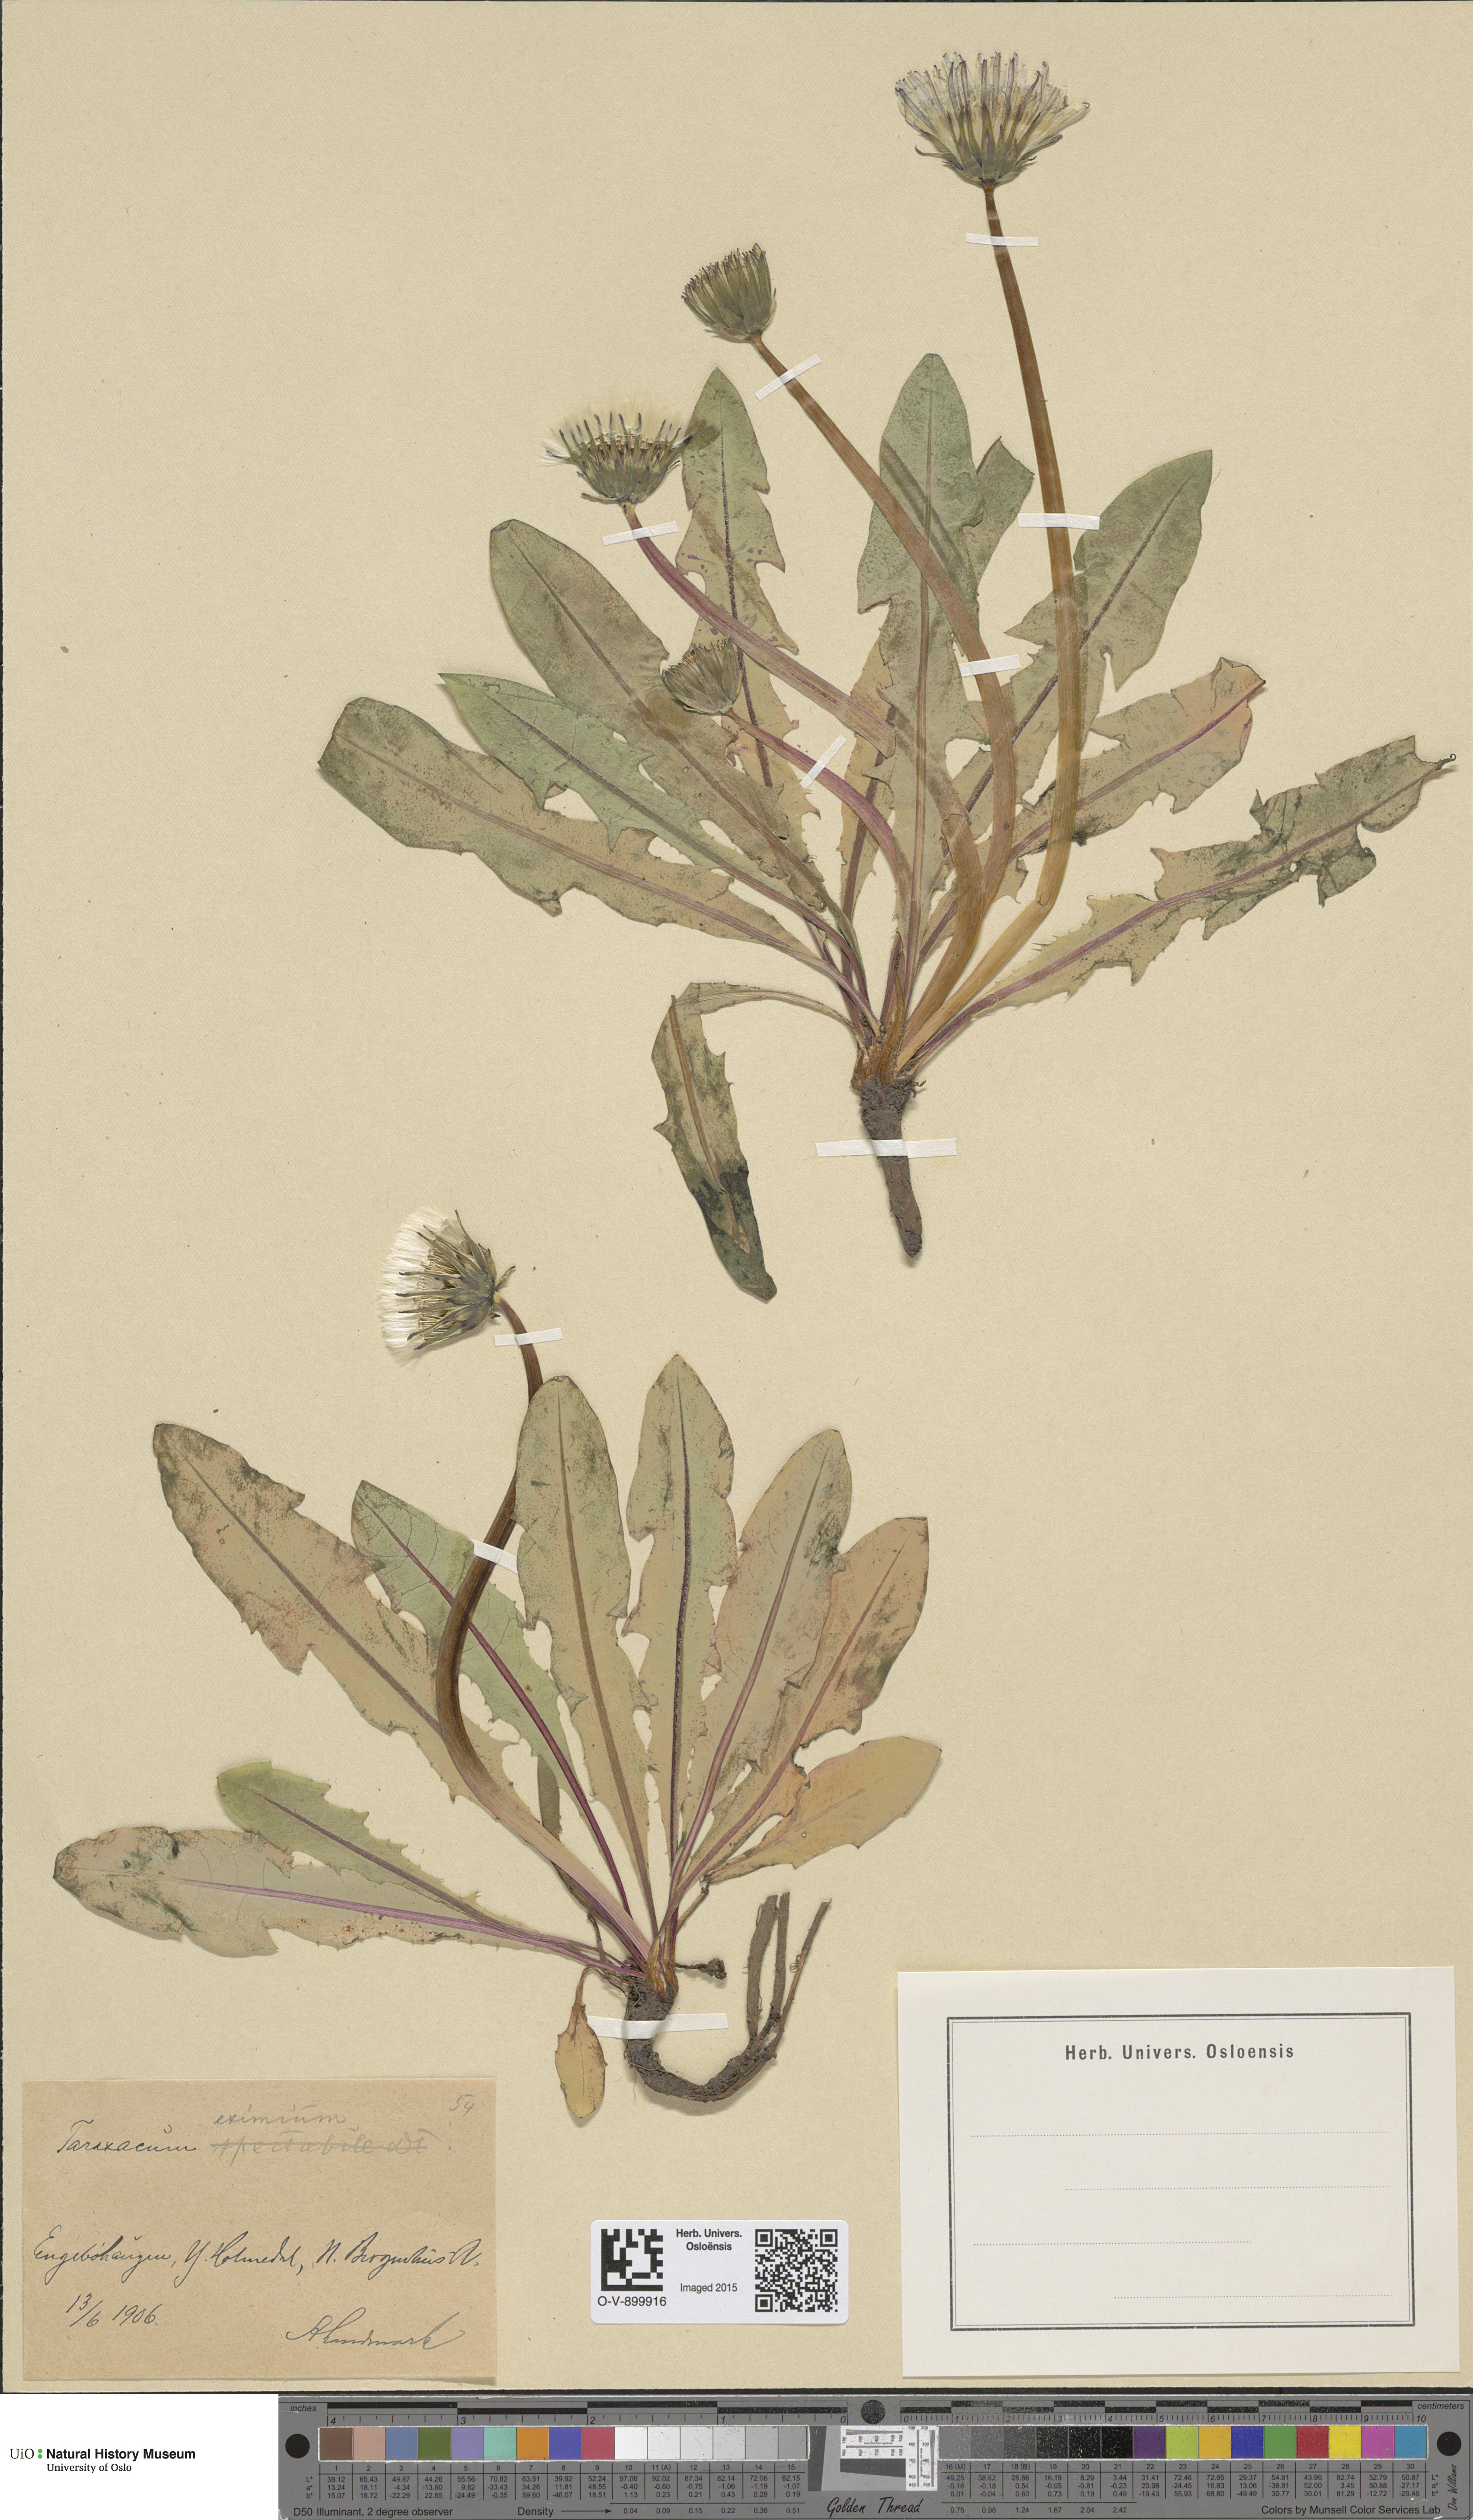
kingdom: Plantae
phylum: Tracheophyta
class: Magnoliopsida
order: Asterales
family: Asteraceae
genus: Taraxacum
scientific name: Taraxacum eximium
